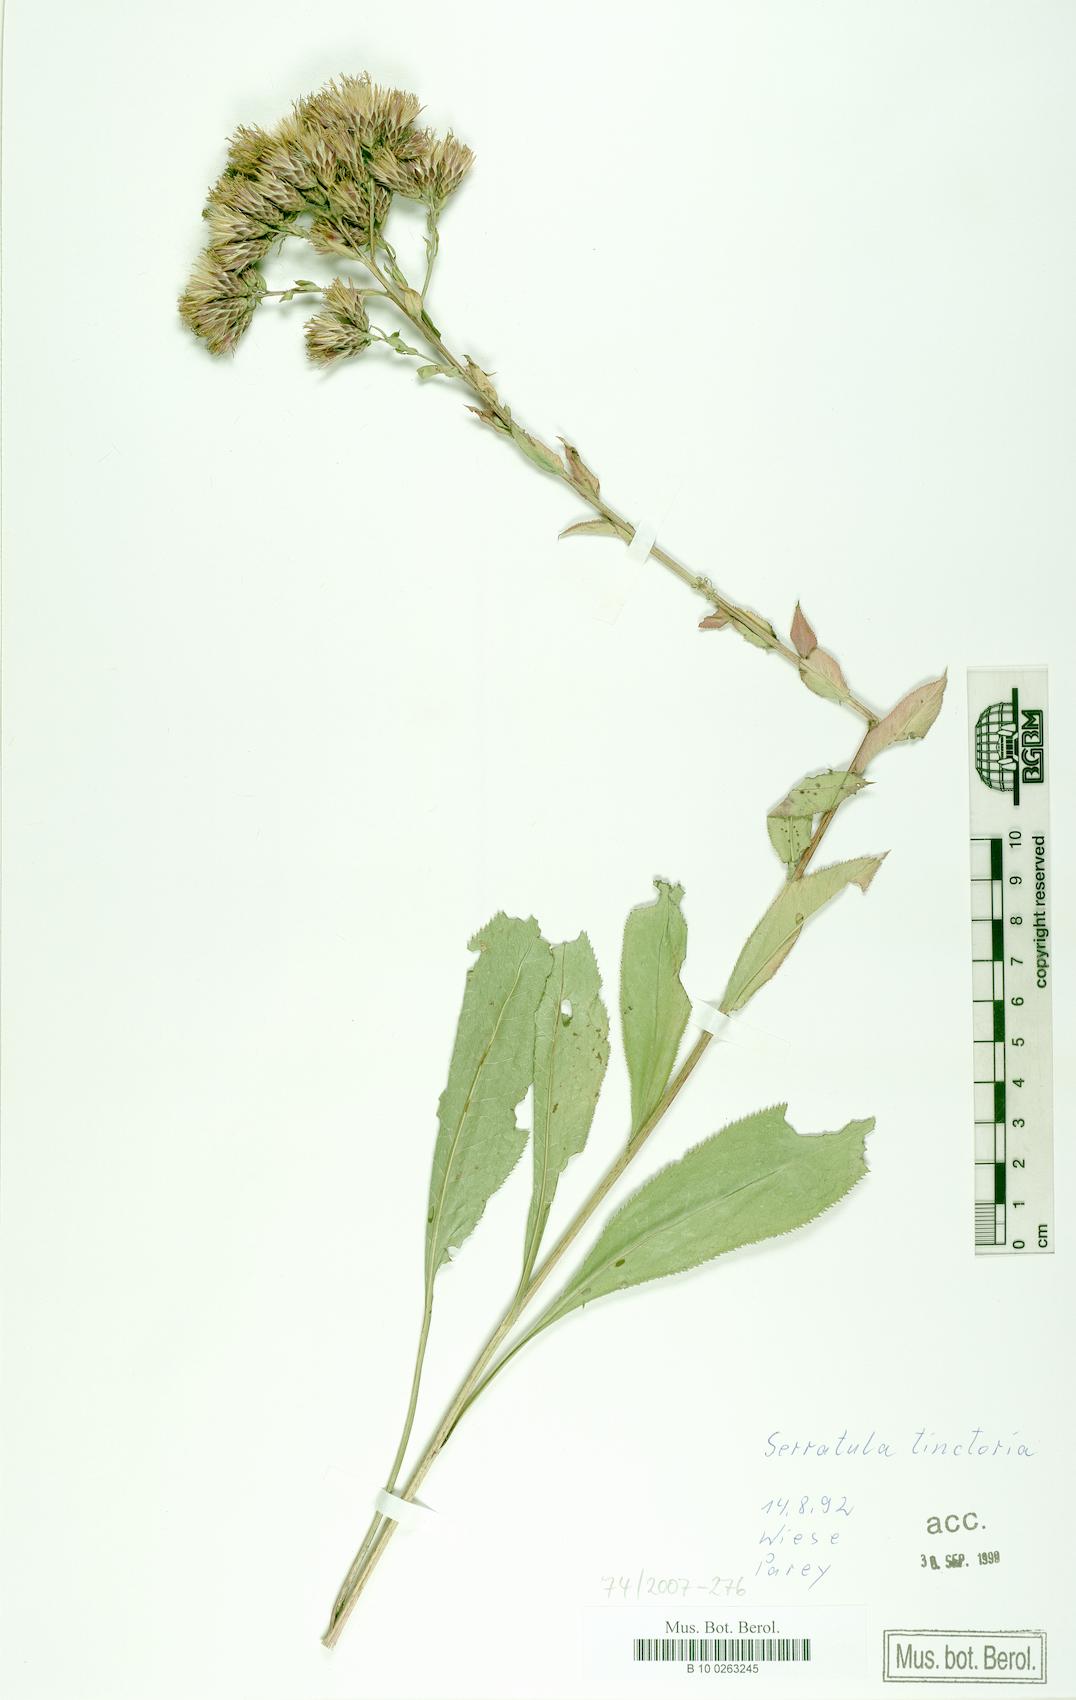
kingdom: Plantae
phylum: Tracheophyta
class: Magnoliopsida
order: Asterales
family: Asteraceae
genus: Serratula
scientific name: Serratula tinctoria
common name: Saw-wort
